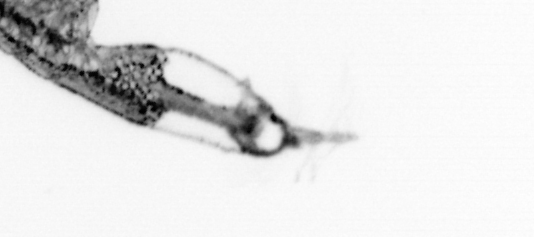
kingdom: Animalia
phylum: Arthropoda
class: Copepoda
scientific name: Copepoda
